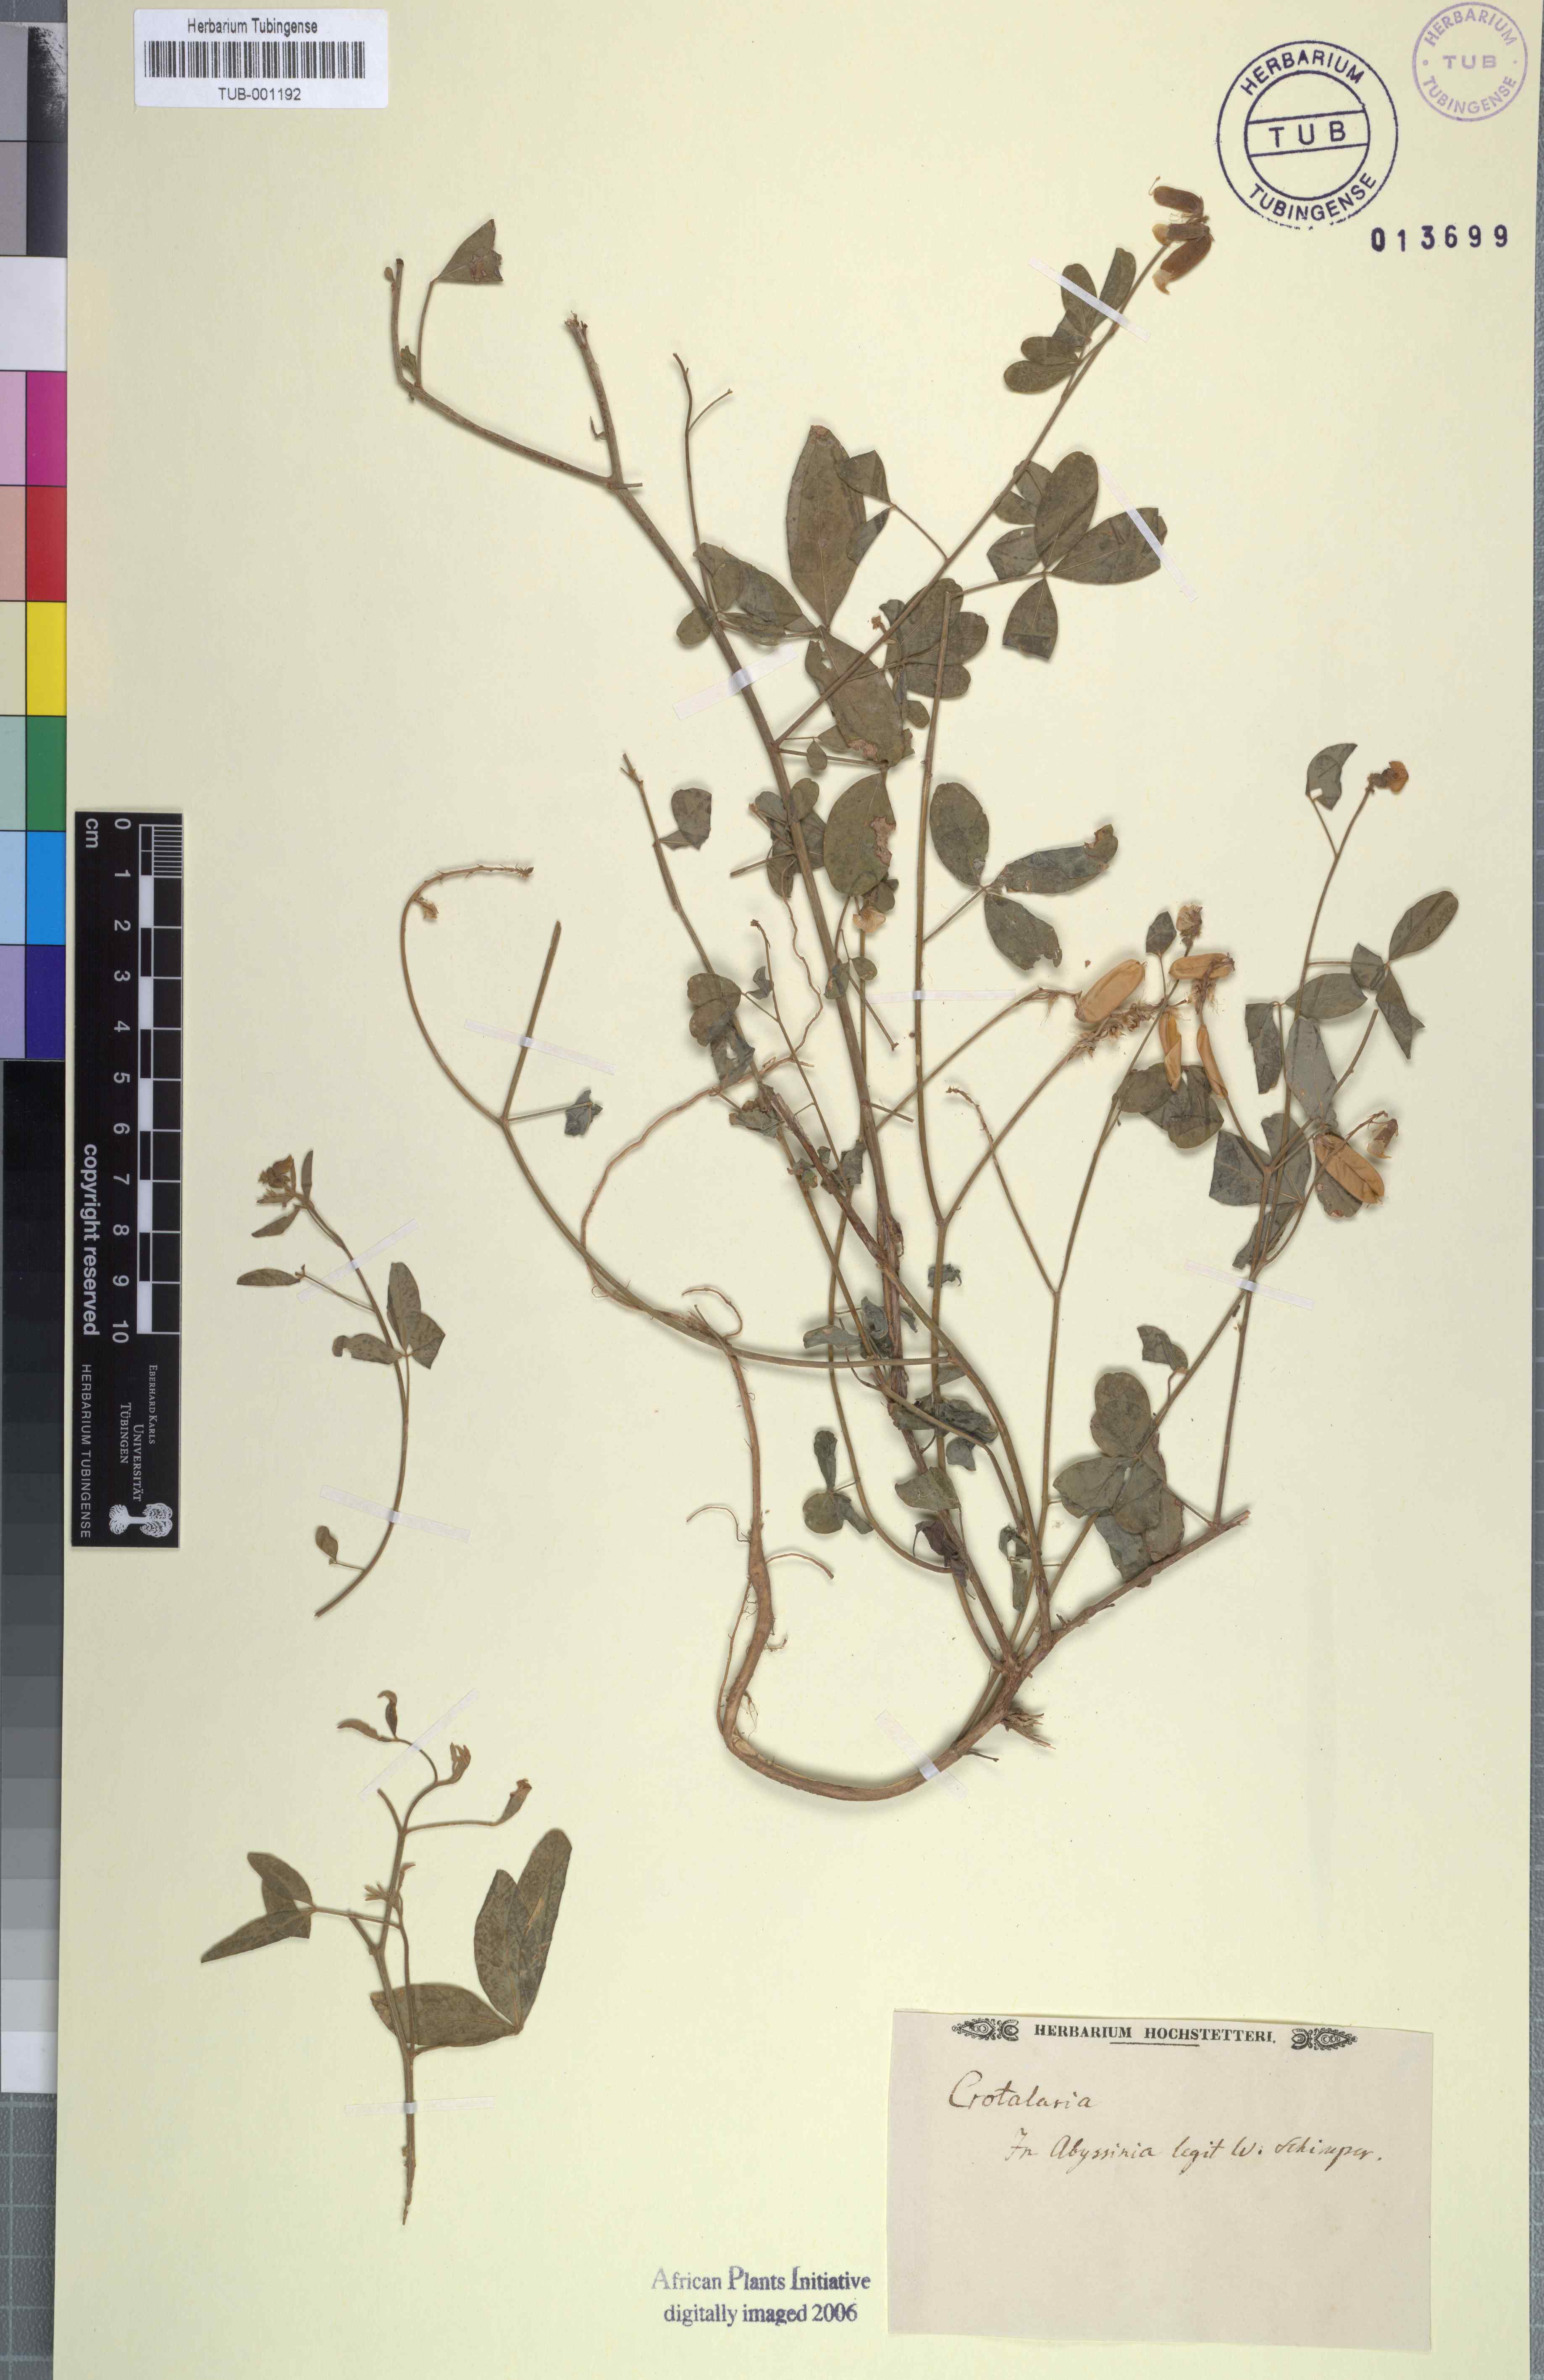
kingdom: Plantae
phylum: Tracheophyta
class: Magnoliopsida
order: Fabales
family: Fabaceae
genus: Crotalaria
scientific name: Crotalaria
